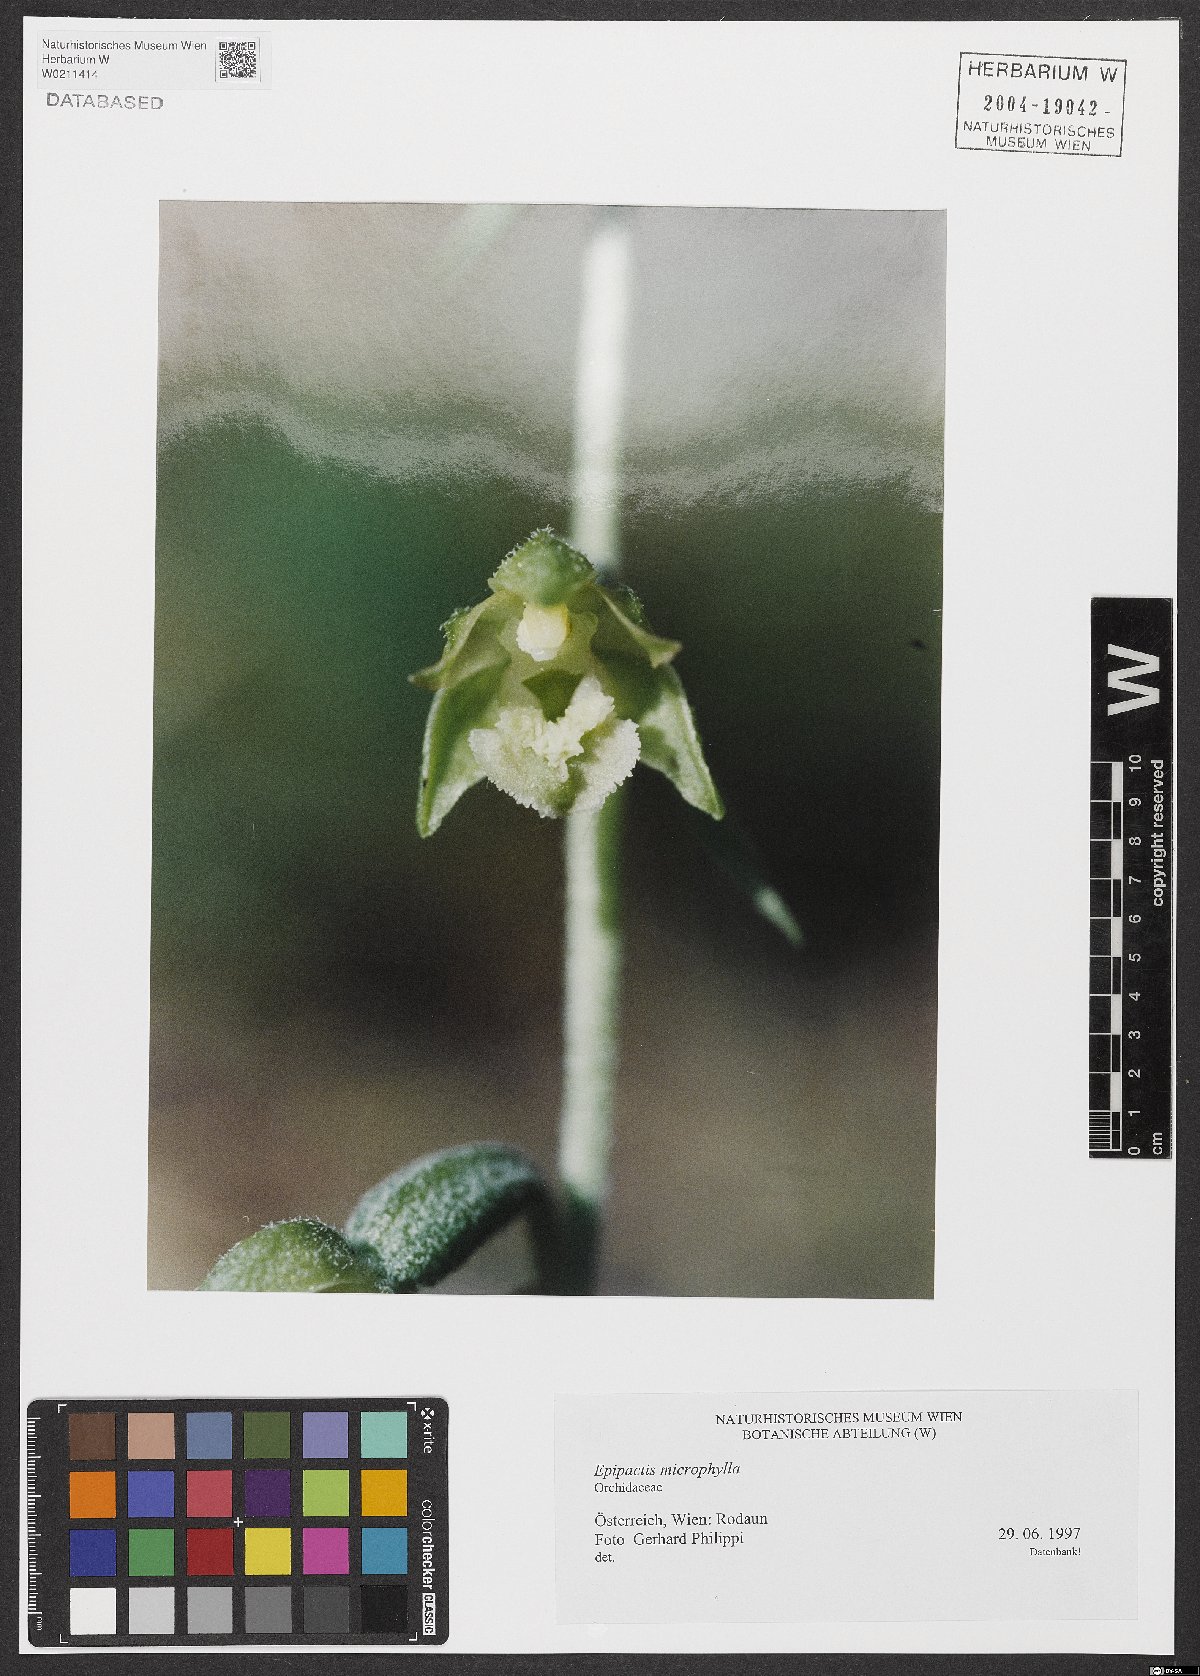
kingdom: Plantae
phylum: Tracheophyta
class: Liliopsida
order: Asparagales
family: Orchidaceae
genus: Epipactis
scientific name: Epipactis microphylla
